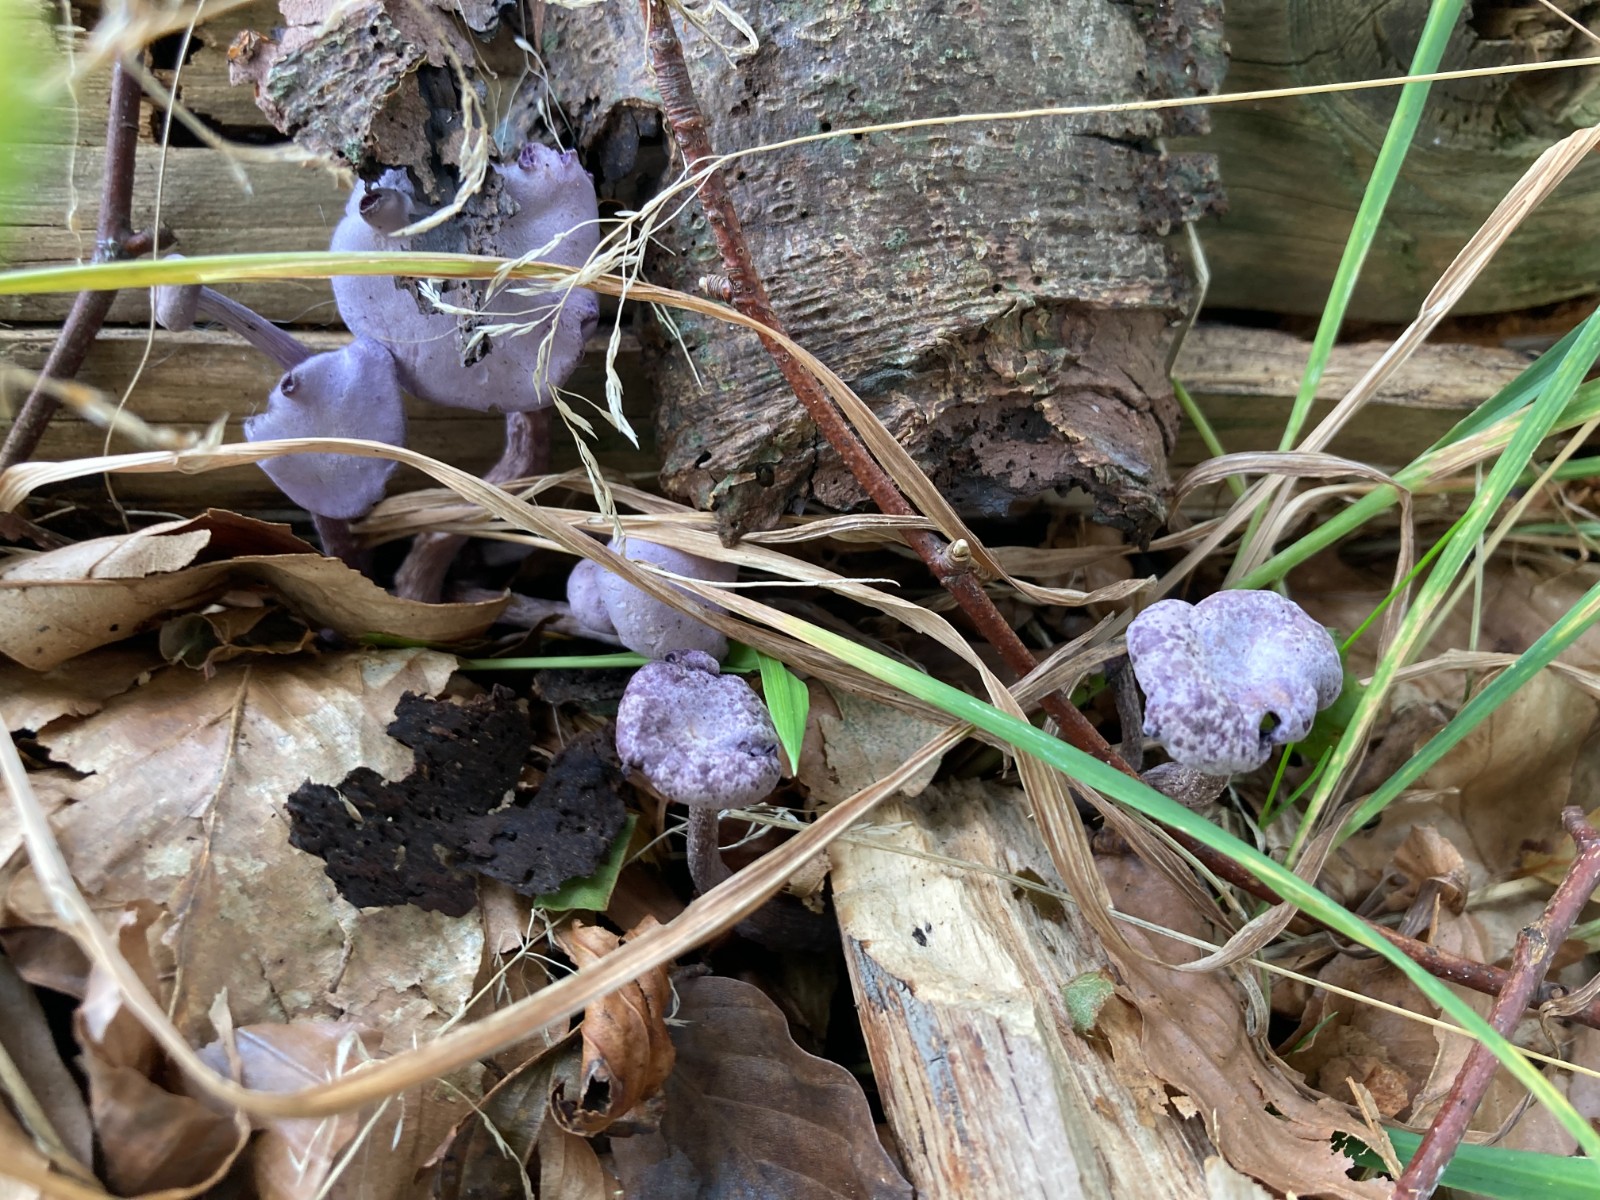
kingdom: Fungi
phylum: Basidiomycota
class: Agaricomycetes
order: Agaricales
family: Hydnangiaceae
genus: Laccaria
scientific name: Laccaria amethystina
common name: violet ametysthat
